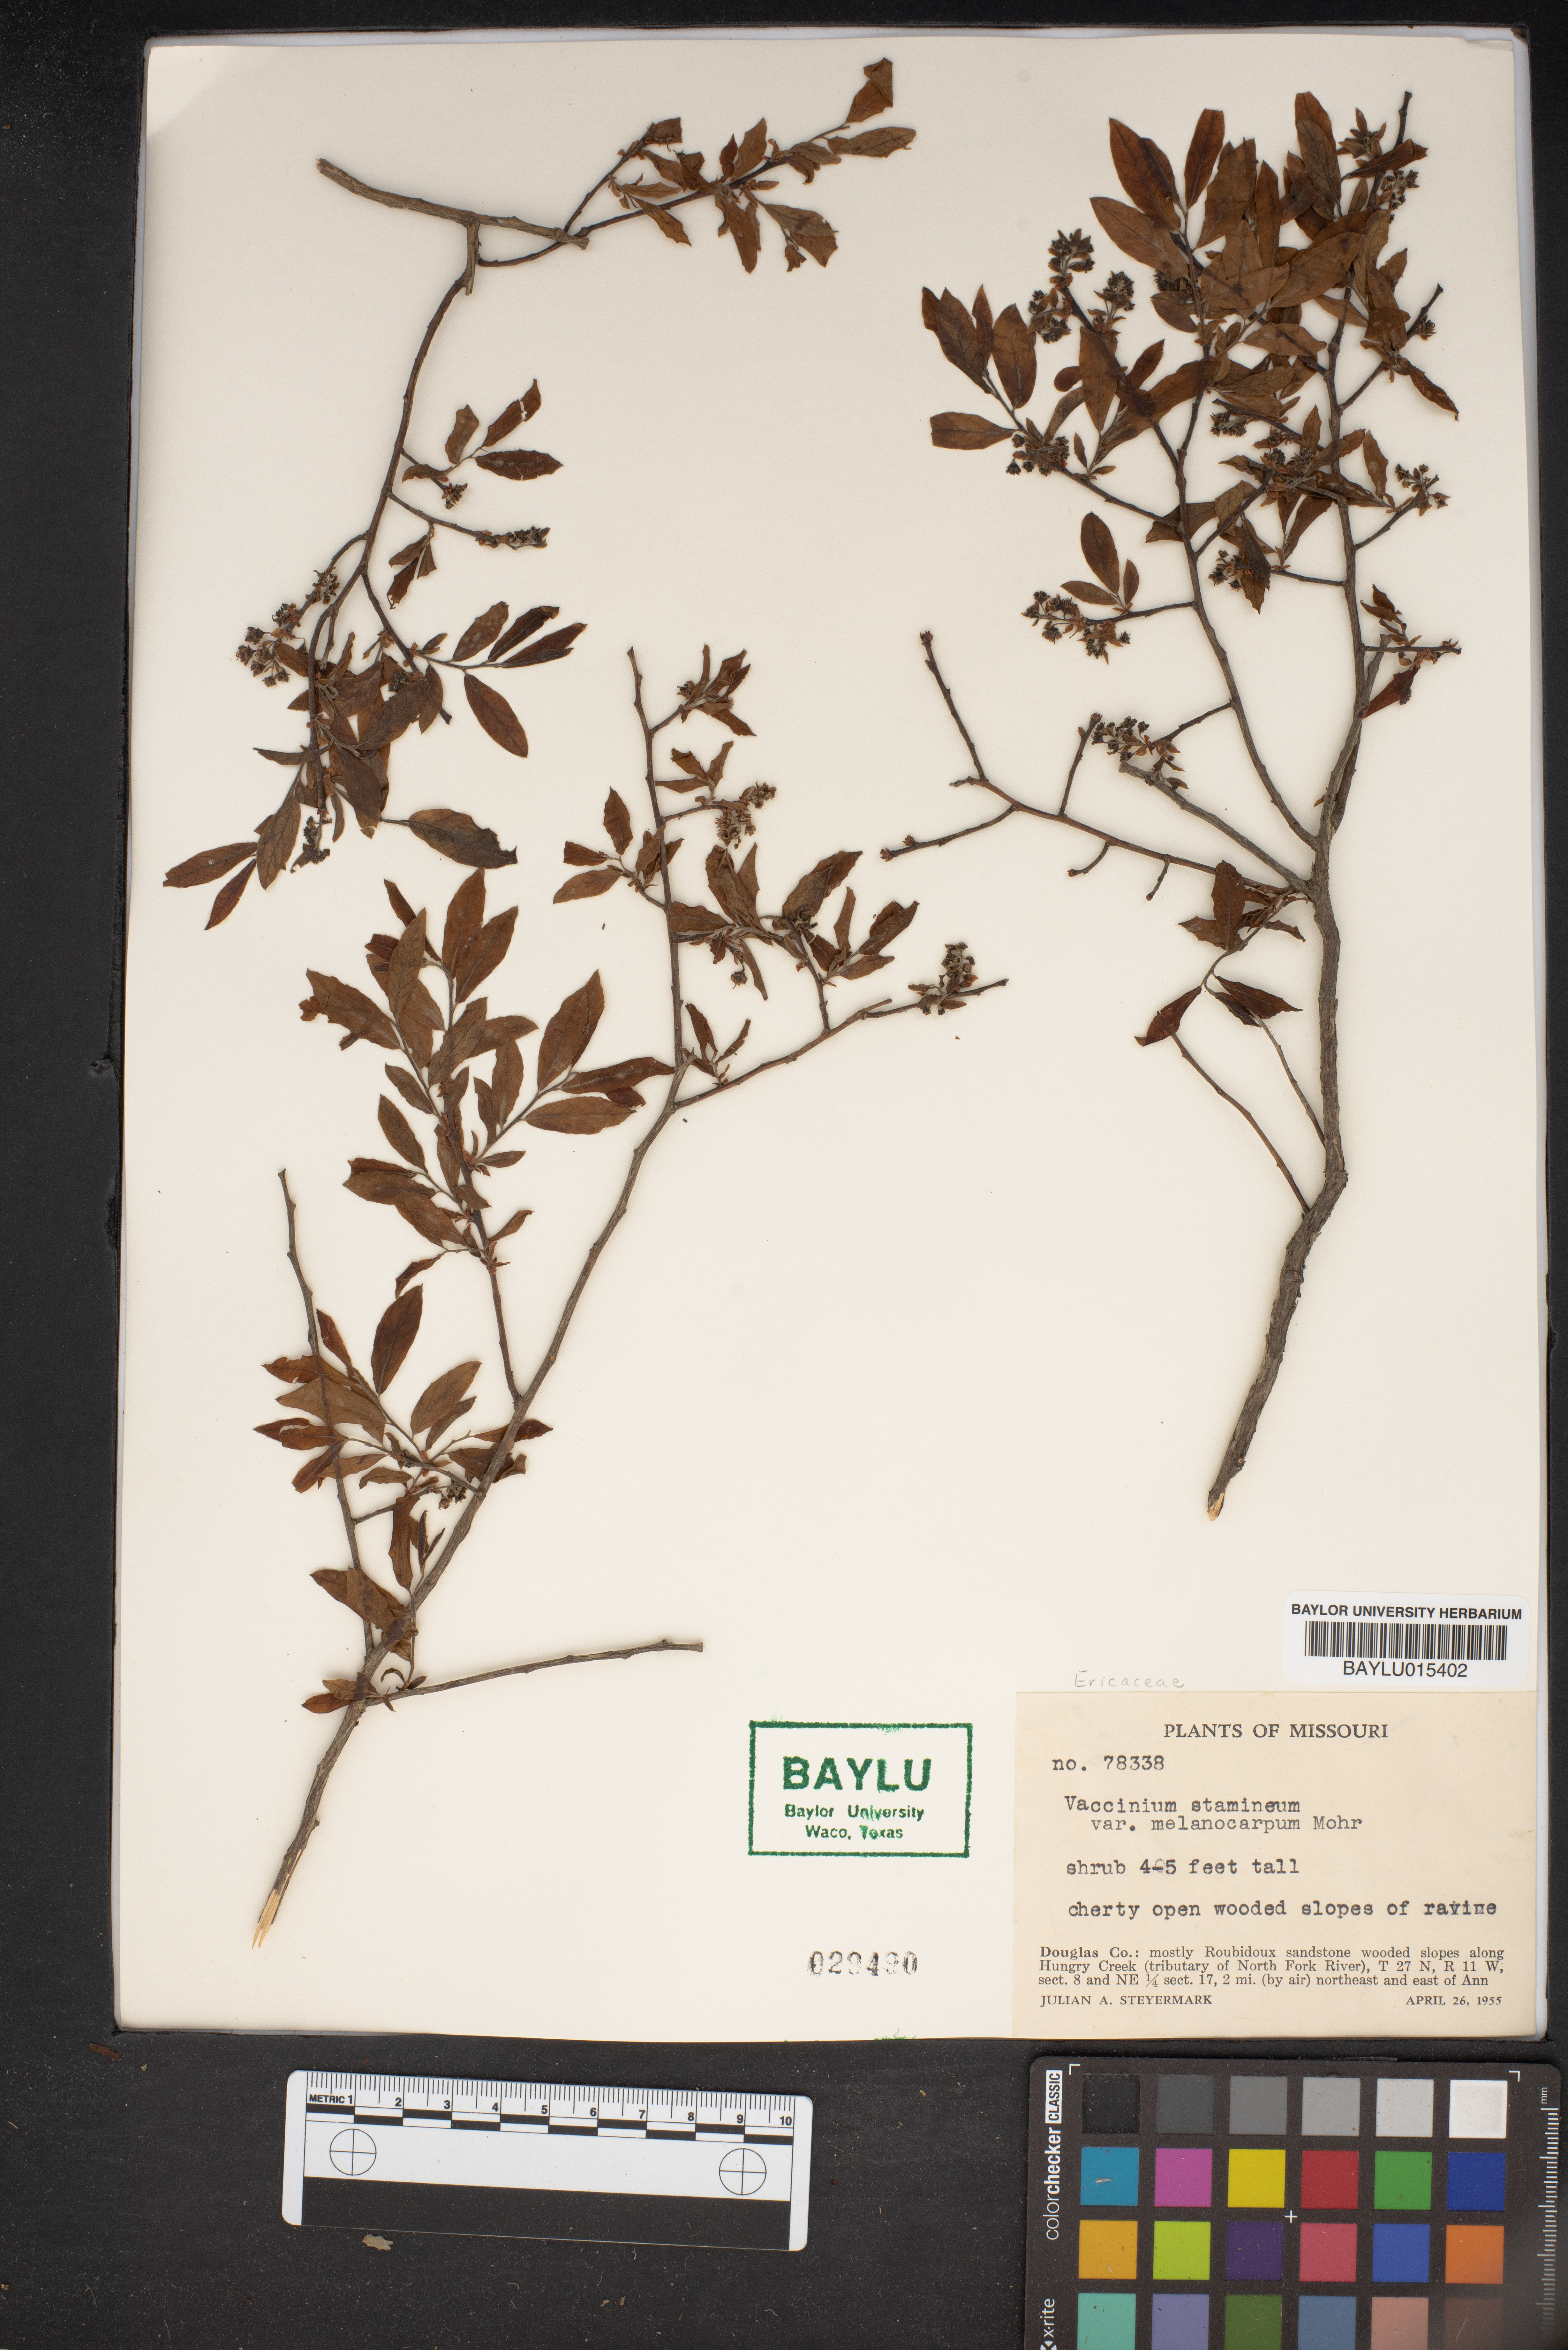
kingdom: Plantae
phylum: Tracheophyta
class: Magnoliopsida
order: Ericales
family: Ericaceae
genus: Vaccinium
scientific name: Vaccinium stamineum
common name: Deerberry
